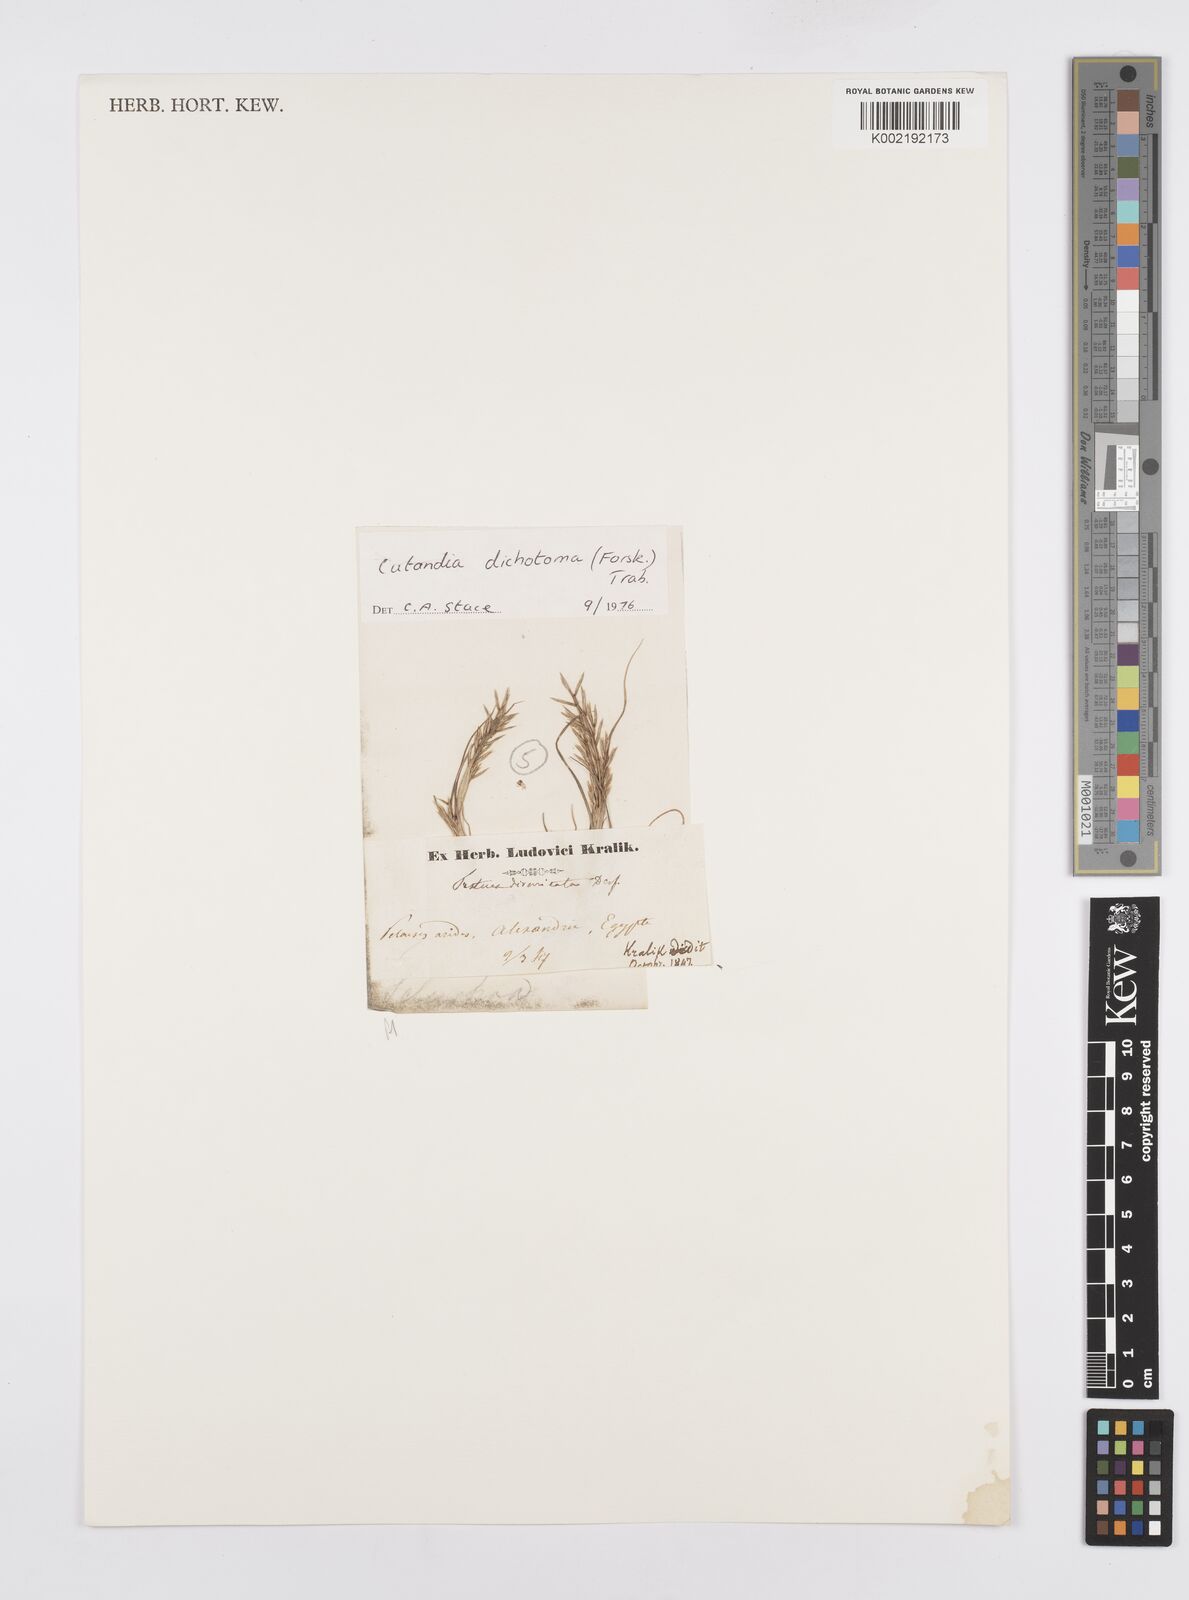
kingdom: Plantae
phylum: Tracheophyta
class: Liliopsida
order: Poales
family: Poaceae
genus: Cutandia
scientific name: Cutandia dichotoma
